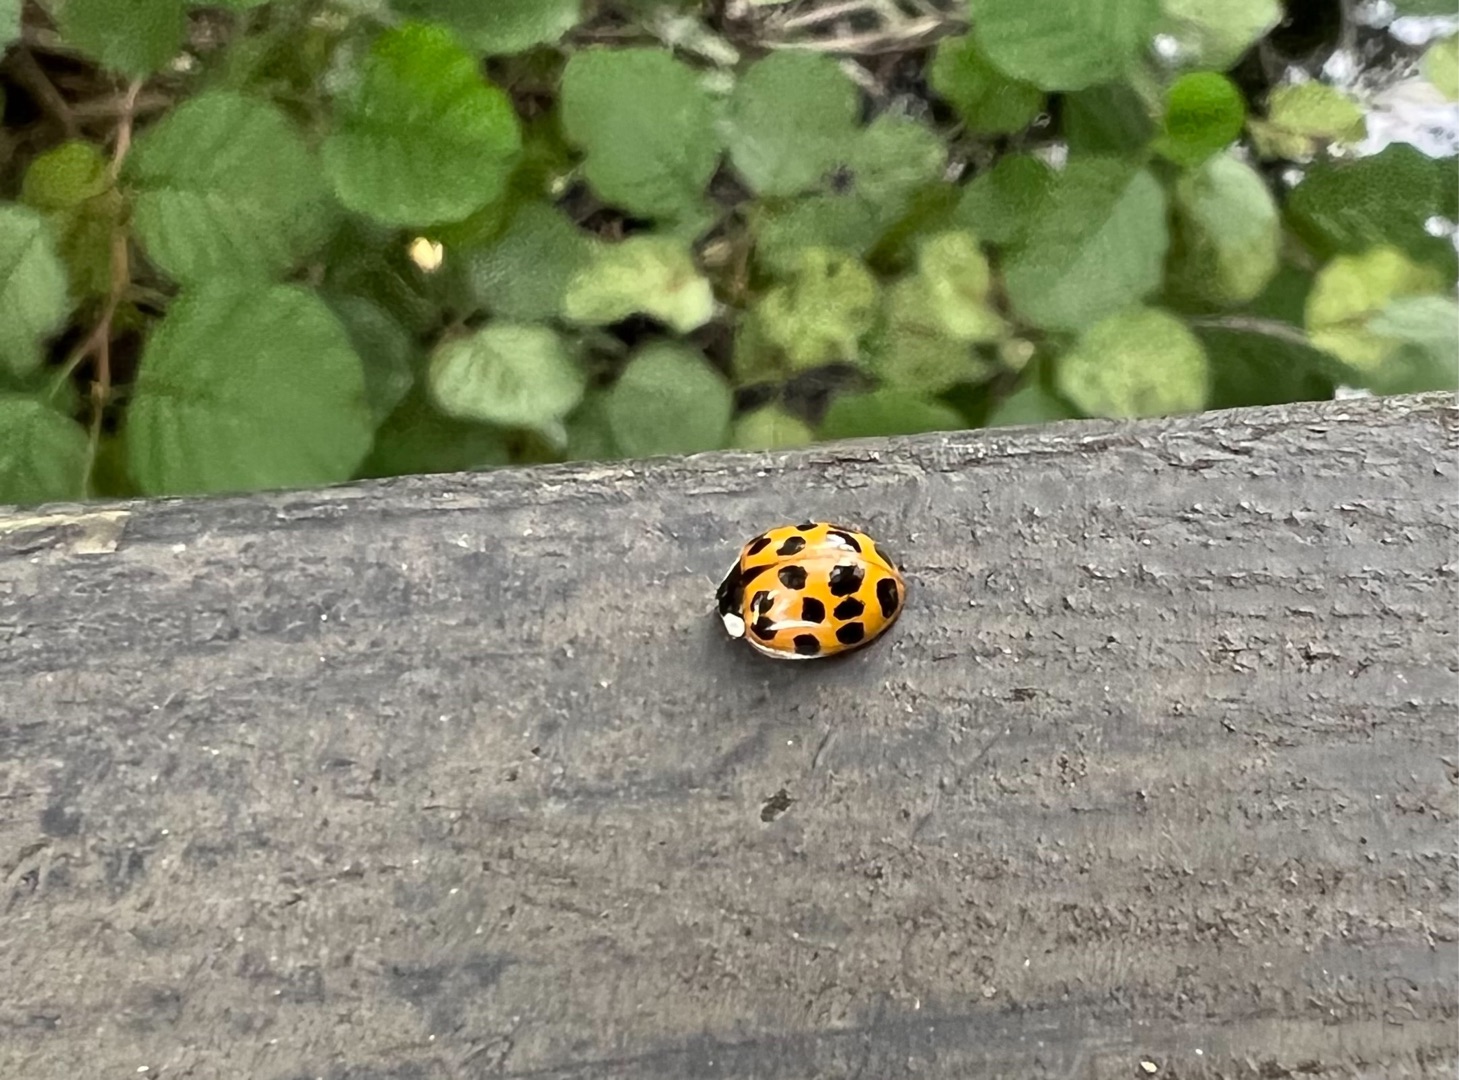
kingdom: Animalia
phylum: Arthropoda
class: Insecta
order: Coleoptera
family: Coccinellidae
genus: Harmonia
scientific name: Harmonia axyridis
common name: Harlekinmariehøne
